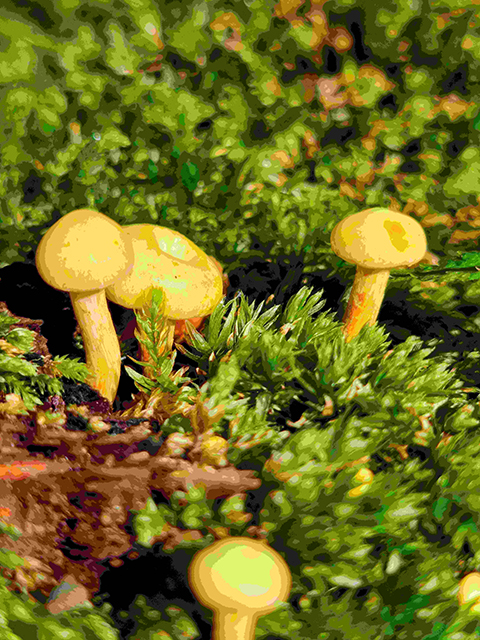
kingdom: Fungi
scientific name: Fungi
